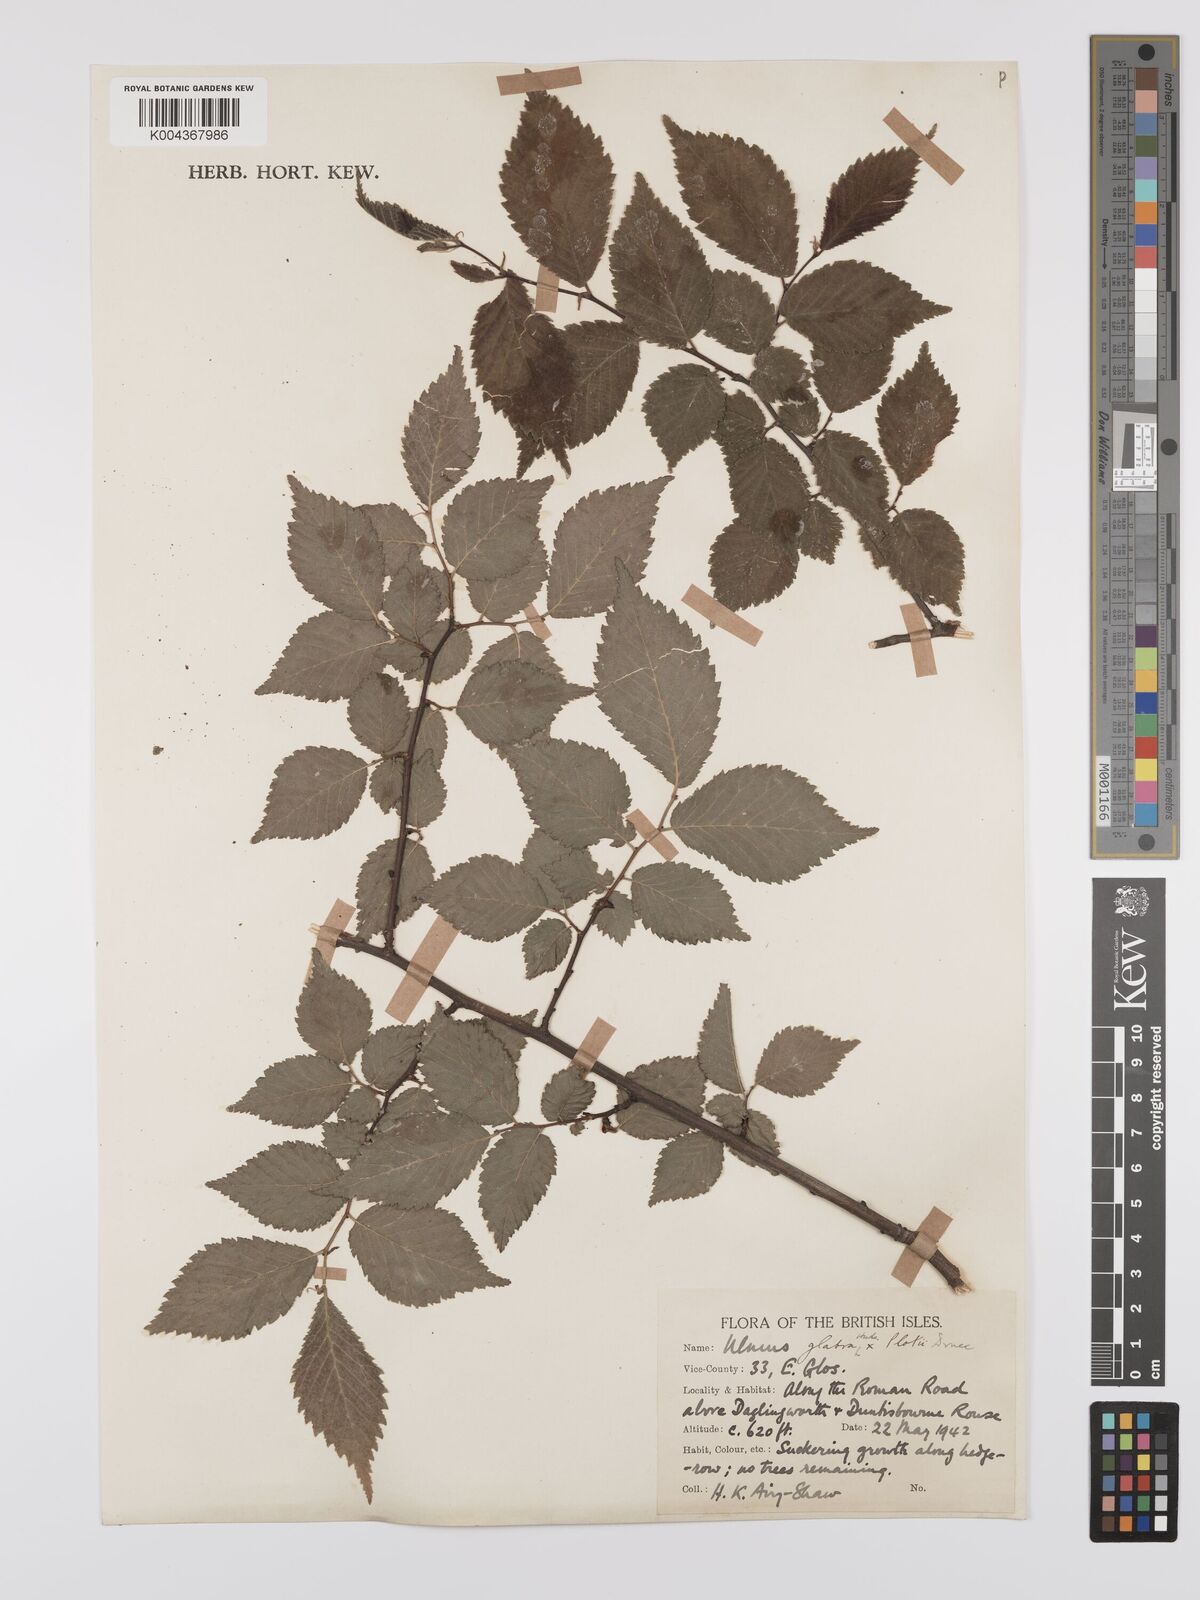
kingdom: Plantae
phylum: Tracheophyta
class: Magnoliopsida
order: Rosales
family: Ulmaceae
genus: Ulmus
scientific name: Ulmus
